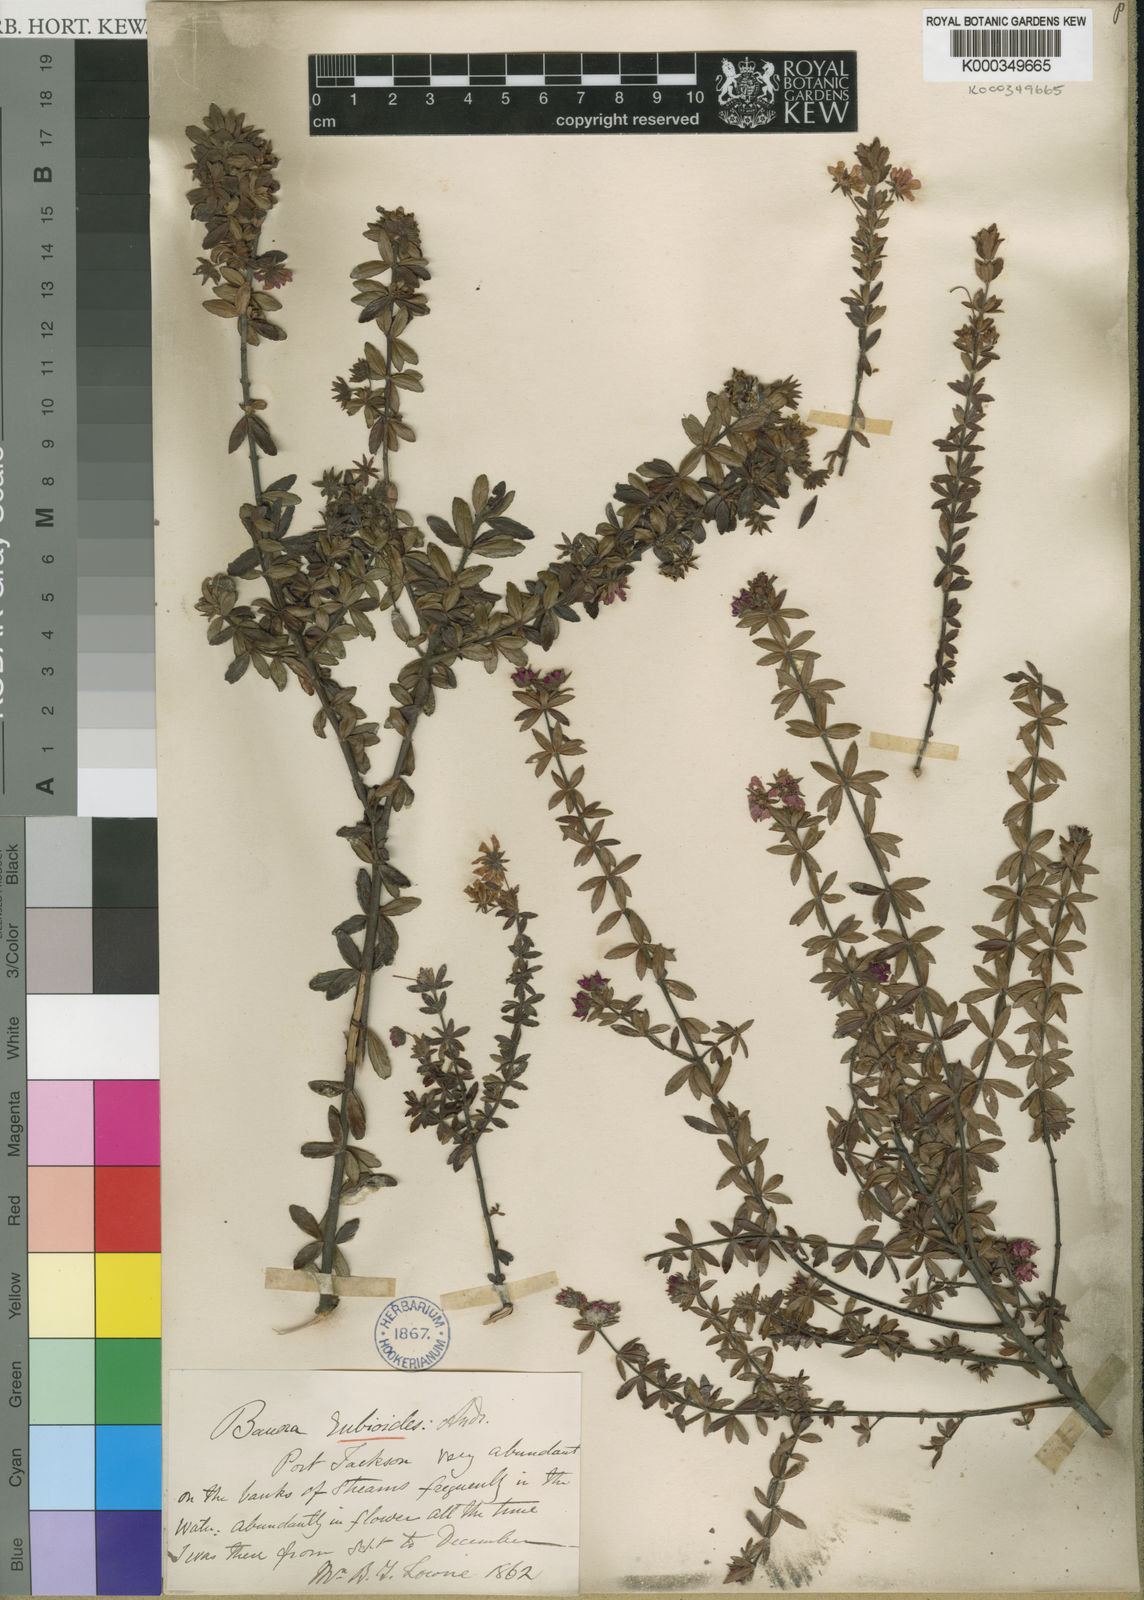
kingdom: Plantae
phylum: Tracheophyta
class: Magnoliopsida
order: Oxalidales
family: Cunoniaceae
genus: Bauera
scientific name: Bauera rubioides
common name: River-rose
